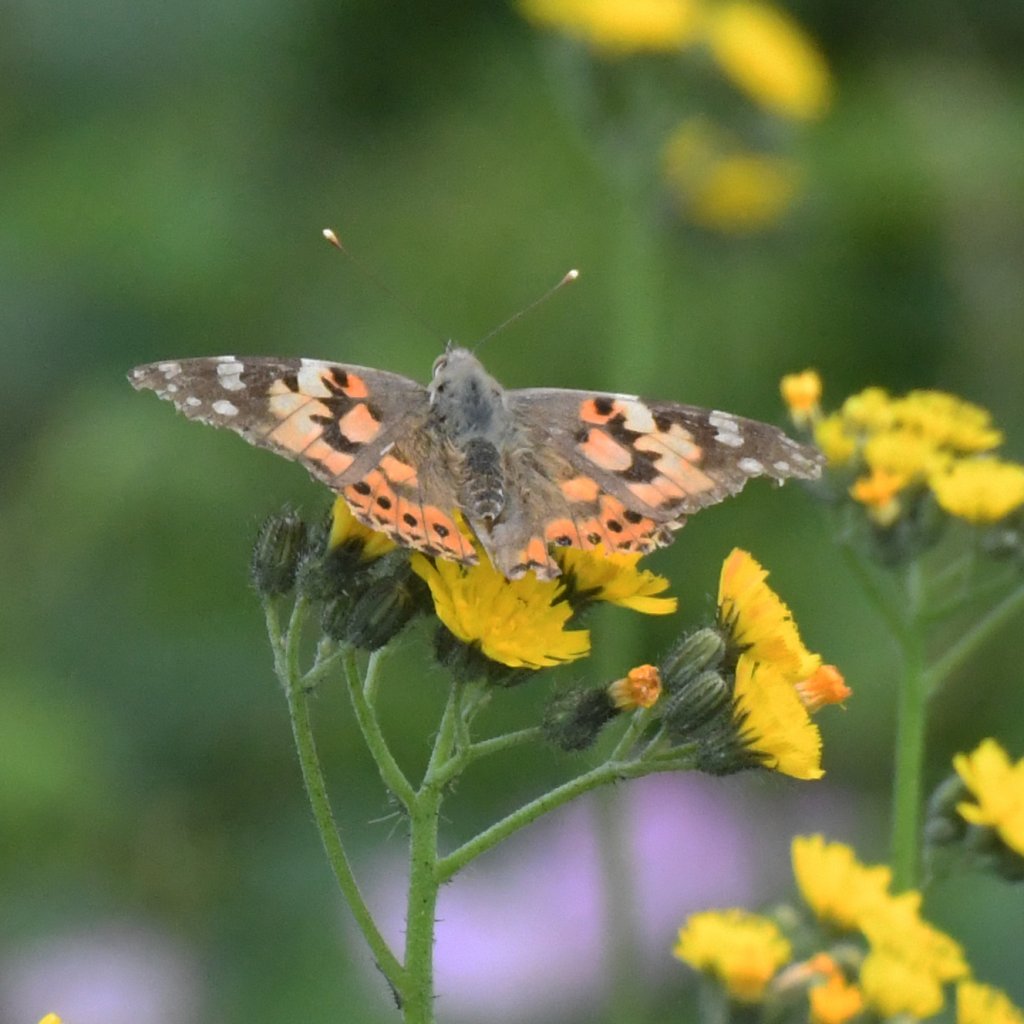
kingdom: Animalia
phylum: Arthropoda
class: Insecta
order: Lepidoptera
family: Nymphalidae
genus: Vanessa
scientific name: Vanessa cardui
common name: Painted Lady
